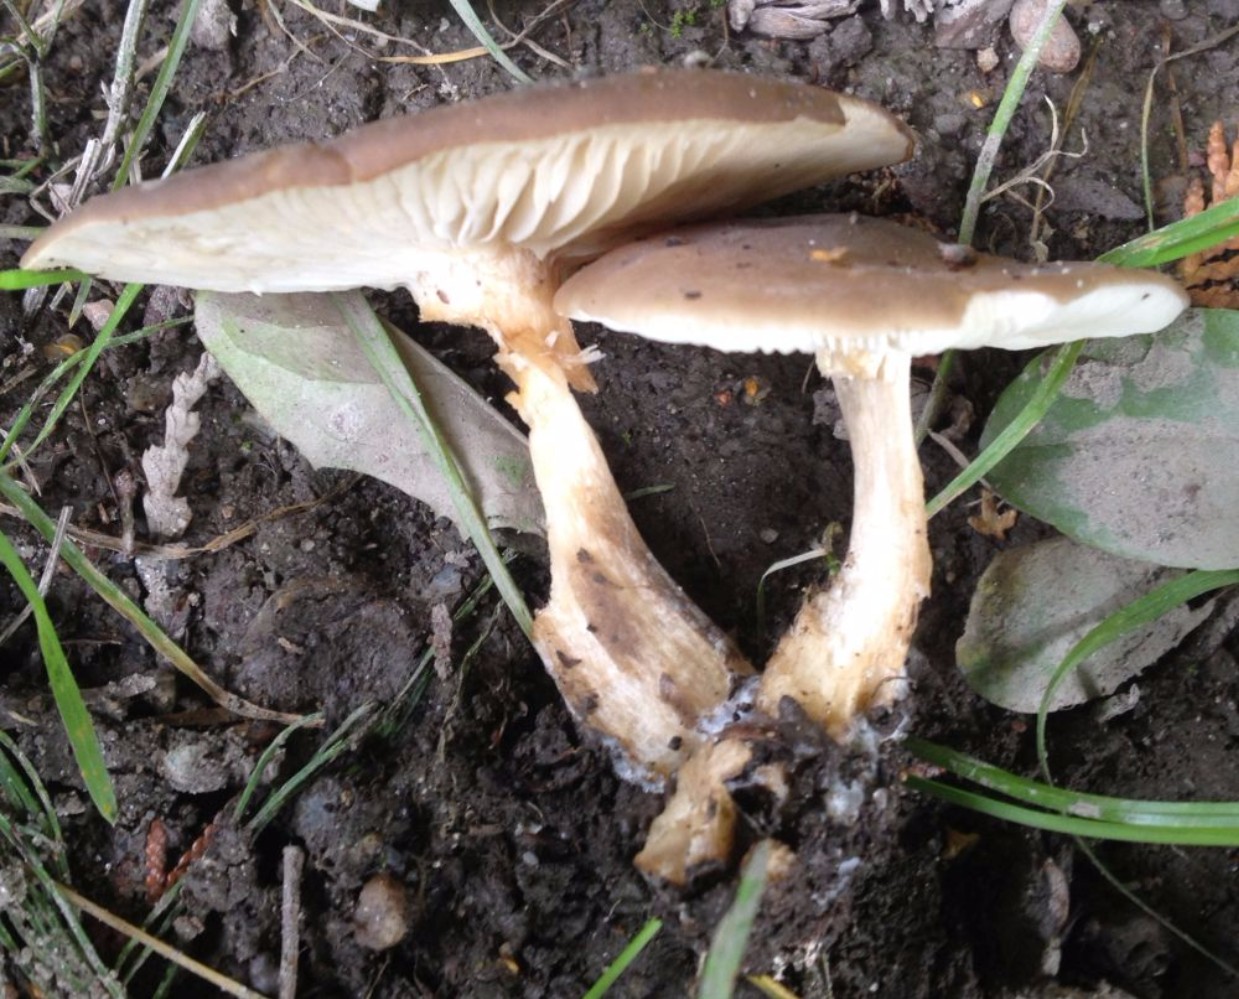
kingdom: Fungi
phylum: Basidiomycota
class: Agaricomycetes
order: Agaricales
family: Lyophyllaceae
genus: Lyophyllum
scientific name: Lyophyllum decastes
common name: røggrå gråblad
